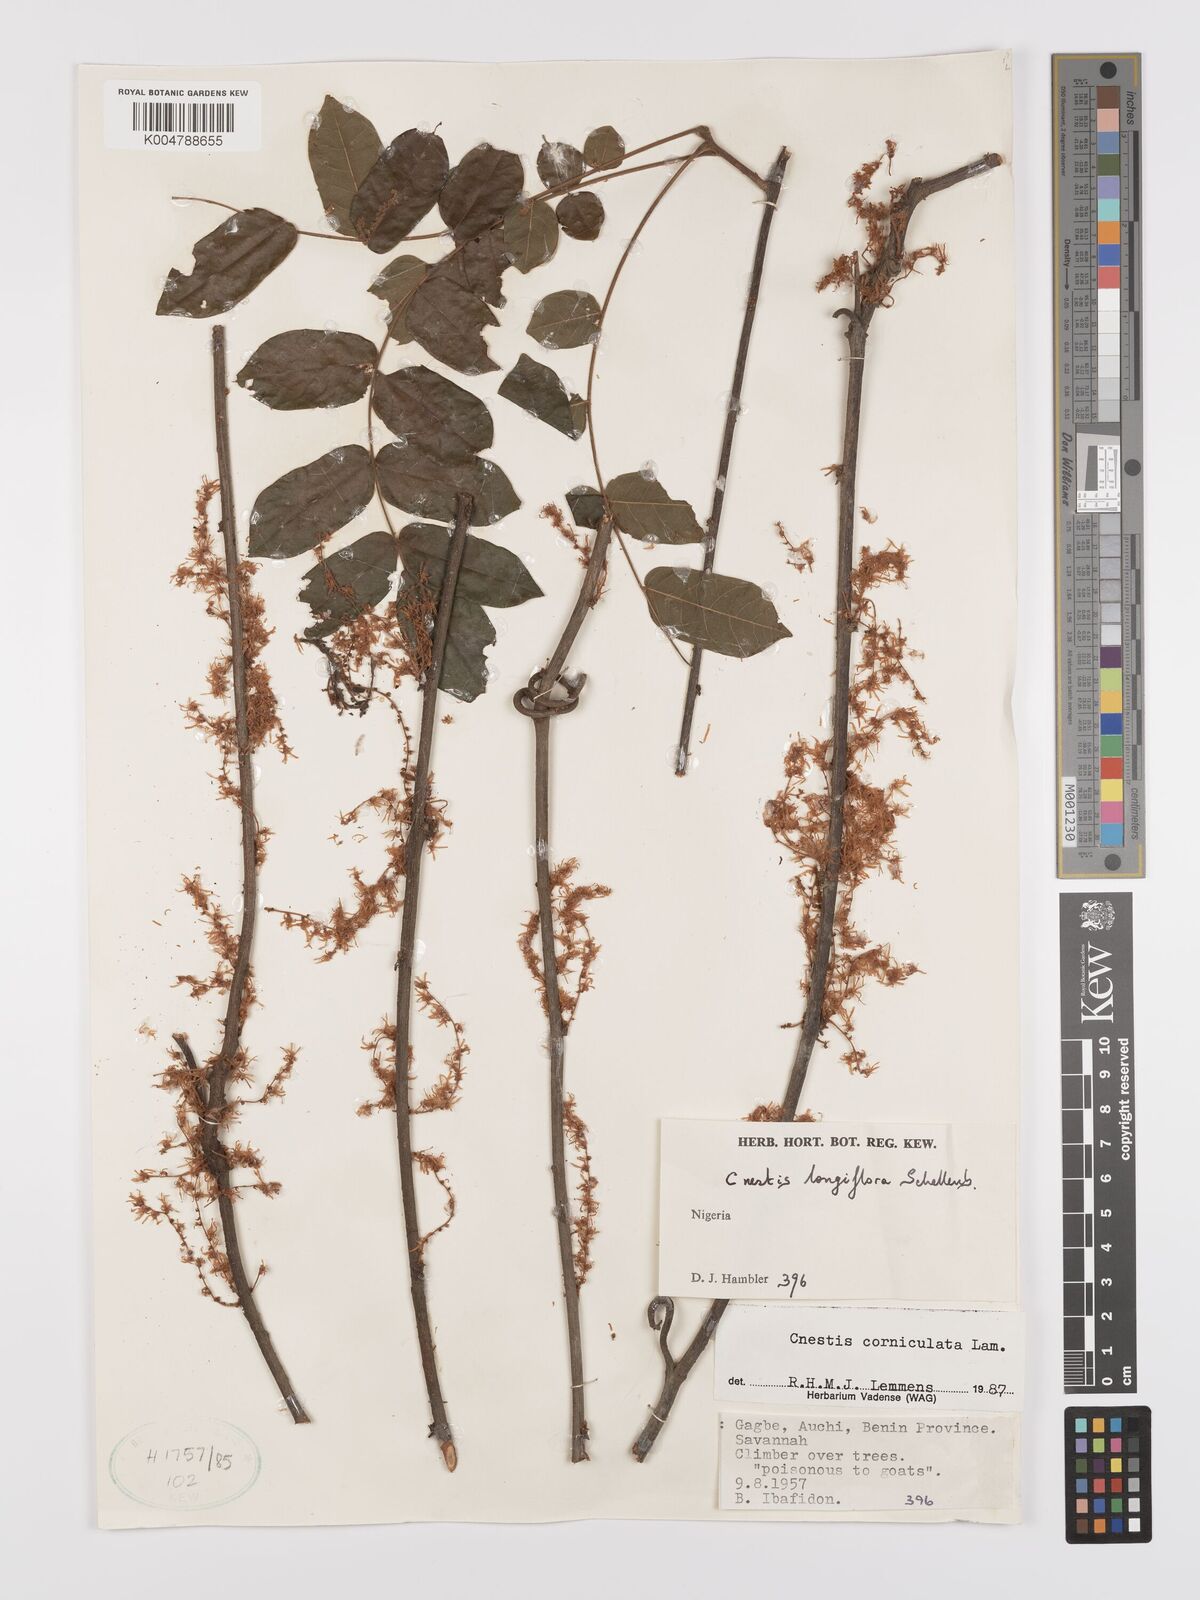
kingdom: Plantae
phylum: Tracheophyta
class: Magnoliopsida
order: Oxalidales
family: Connaraceae
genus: Cnestis
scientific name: Cnestis corniculata
